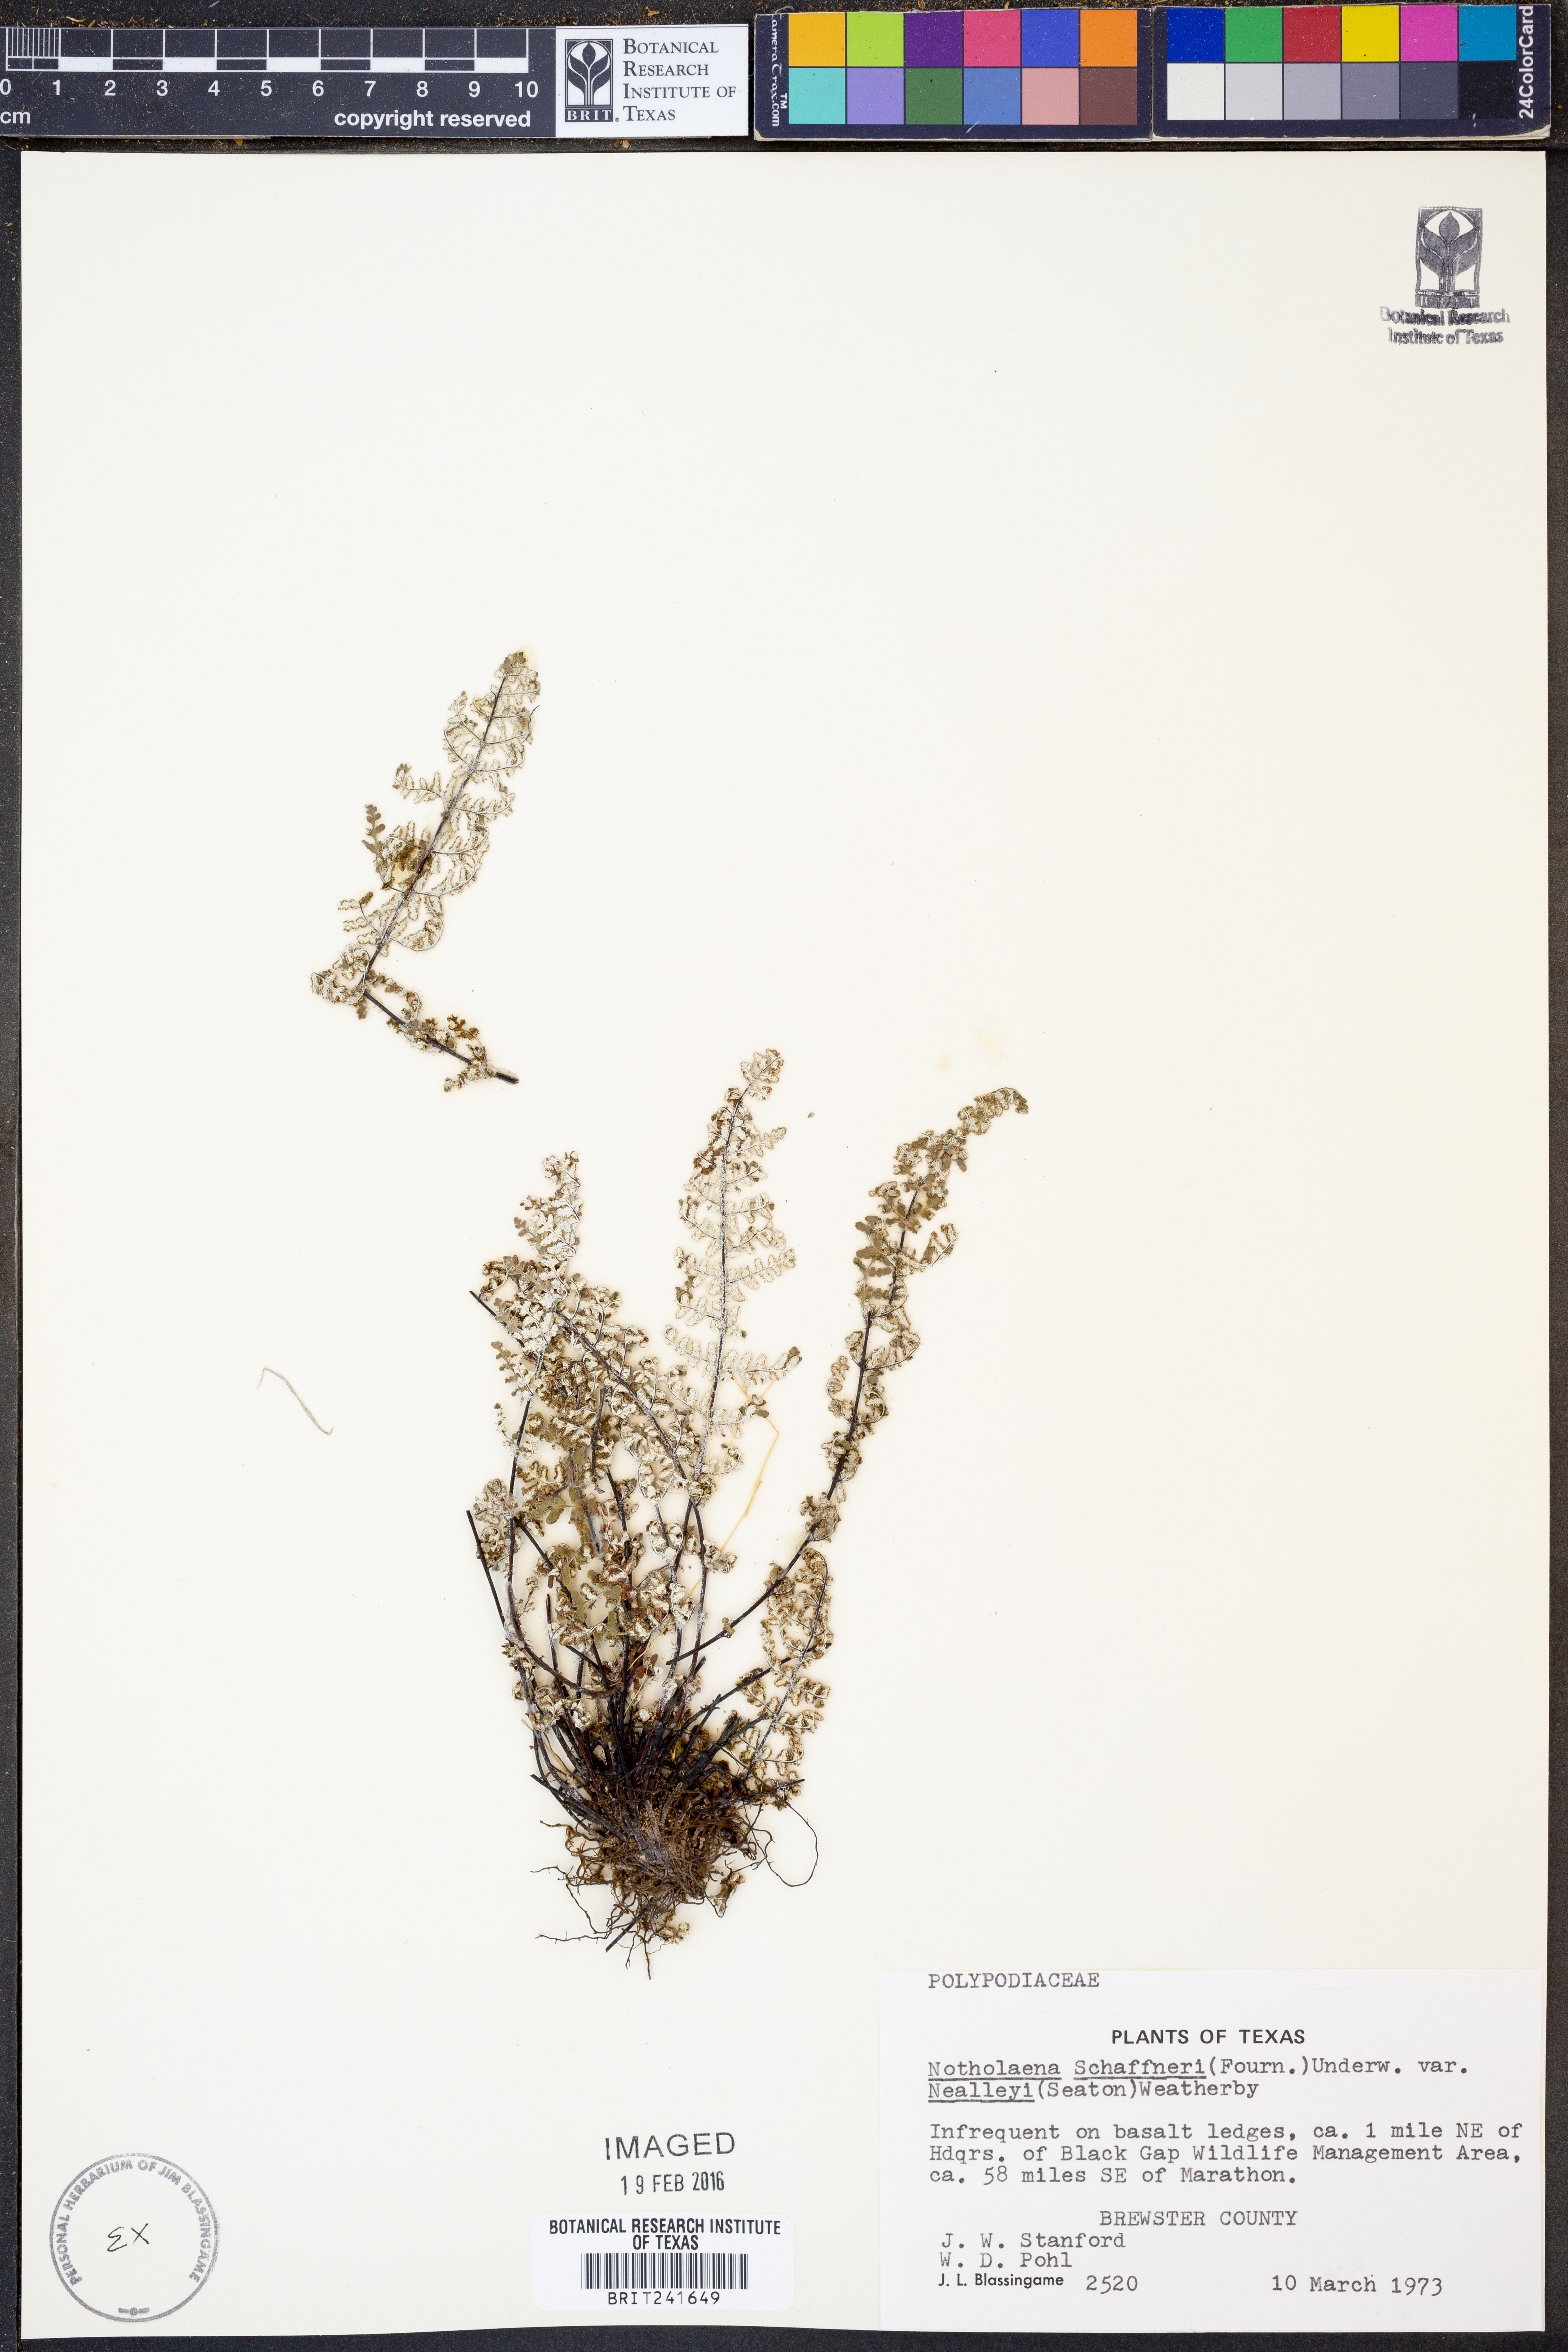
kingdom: Plantae
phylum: Tracheophyta
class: Polypodiopsida
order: Polypodiales
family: Pteridaceae
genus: Notholaena
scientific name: Notholaena schaffneri
